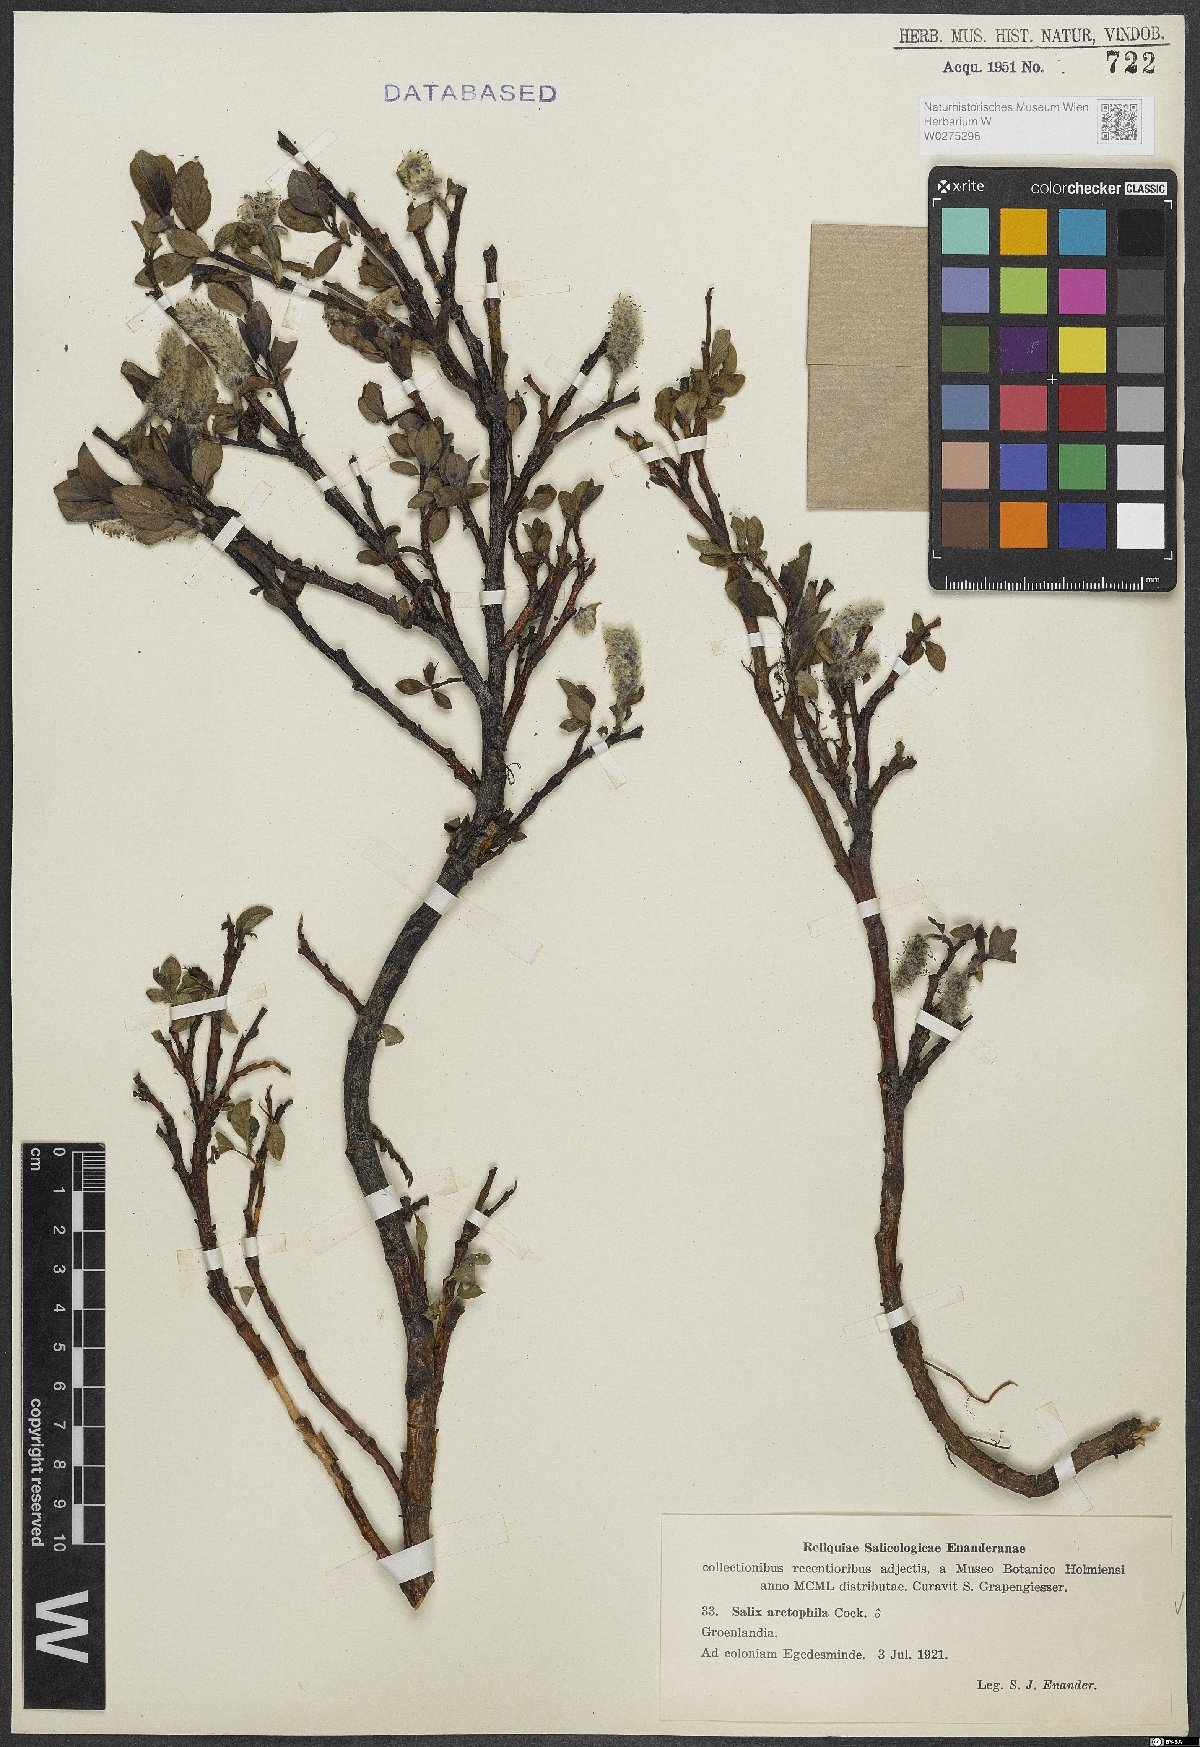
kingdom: Plantae
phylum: Tracheophyta
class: Magnoliopsida
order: Malpighiales
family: Salicaceae
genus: Salix
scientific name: Salix arctophila
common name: Greenland willow
